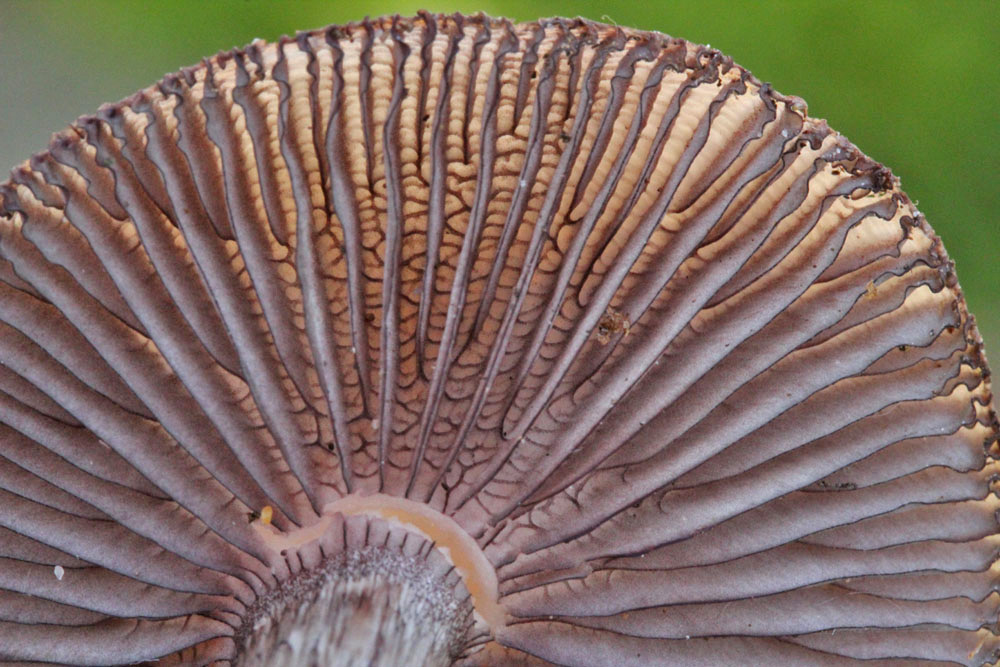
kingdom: Fungi
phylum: Basidiomycota
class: Agaricomycetes
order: Agaricales
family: Mycenaceae
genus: Mycena
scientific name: Mycena pelianthina
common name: mørkbladet huesvamp
